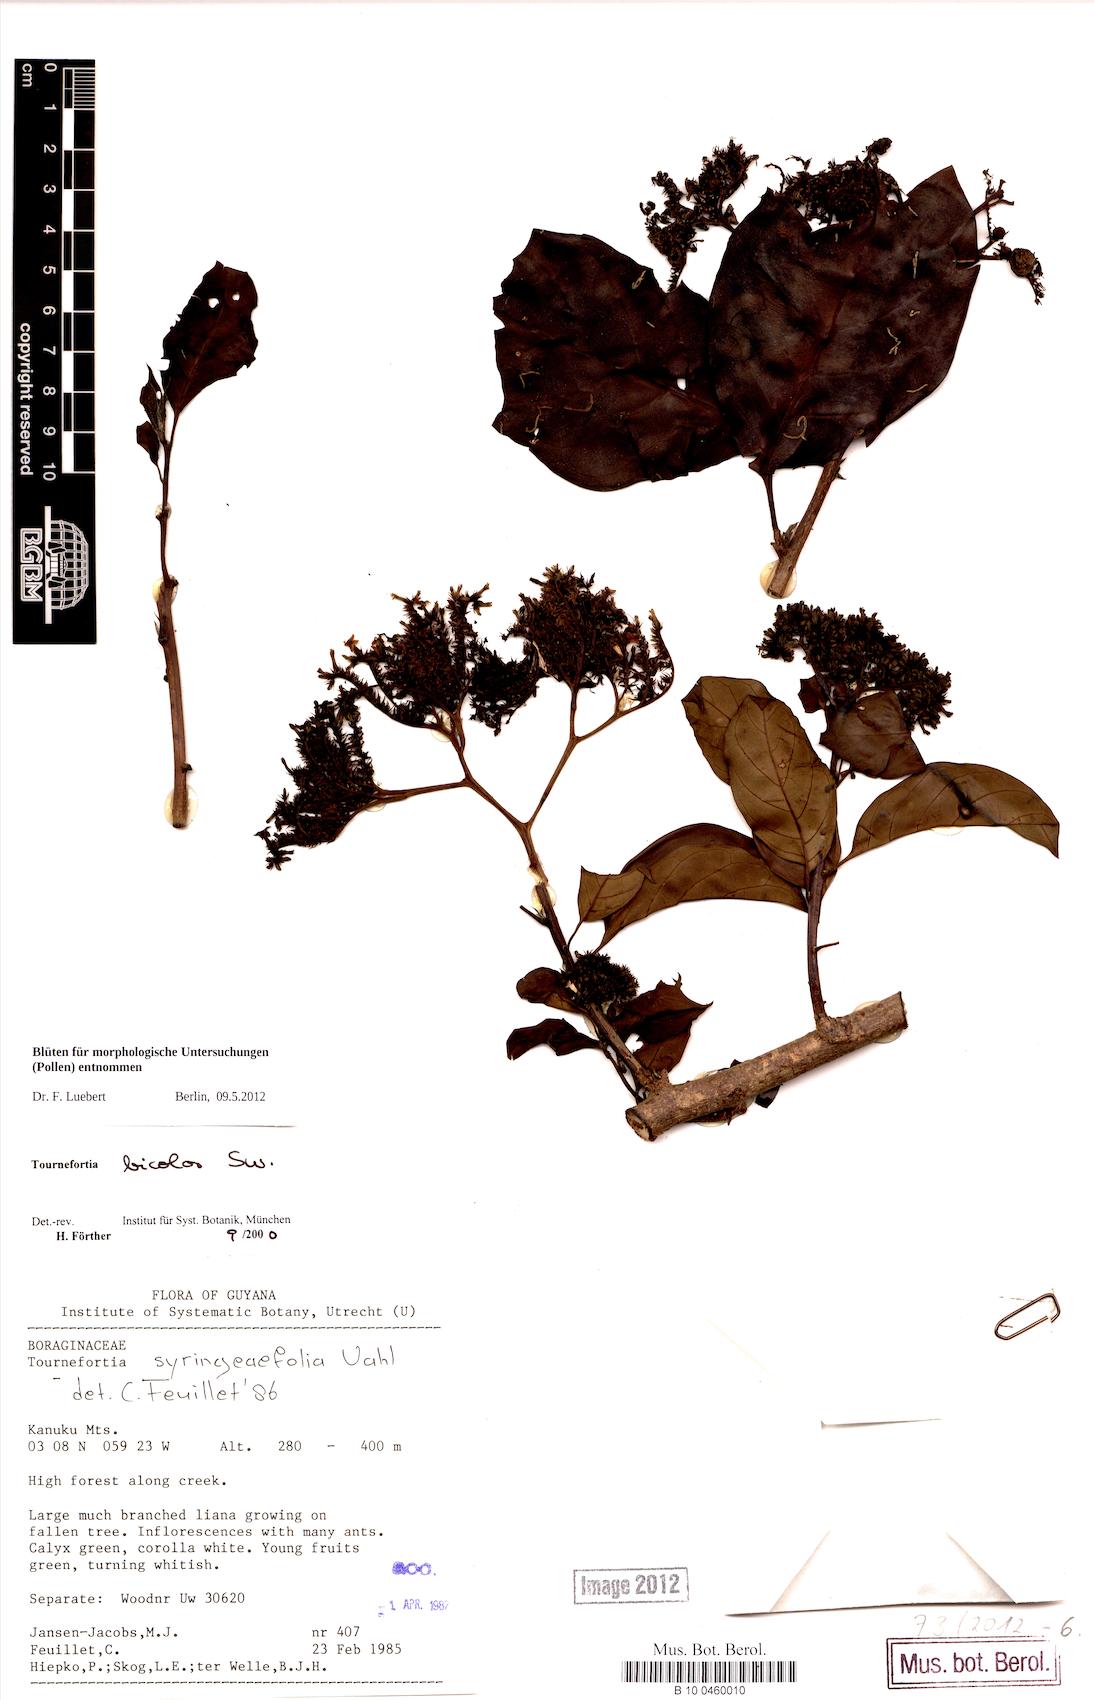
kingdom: Plantae
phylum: Tracheophyta
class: Magnoliopsida
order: Boraginales
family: Heliotropiaceae
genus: Heliotropium
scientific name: Heliotropium verdcourtii
